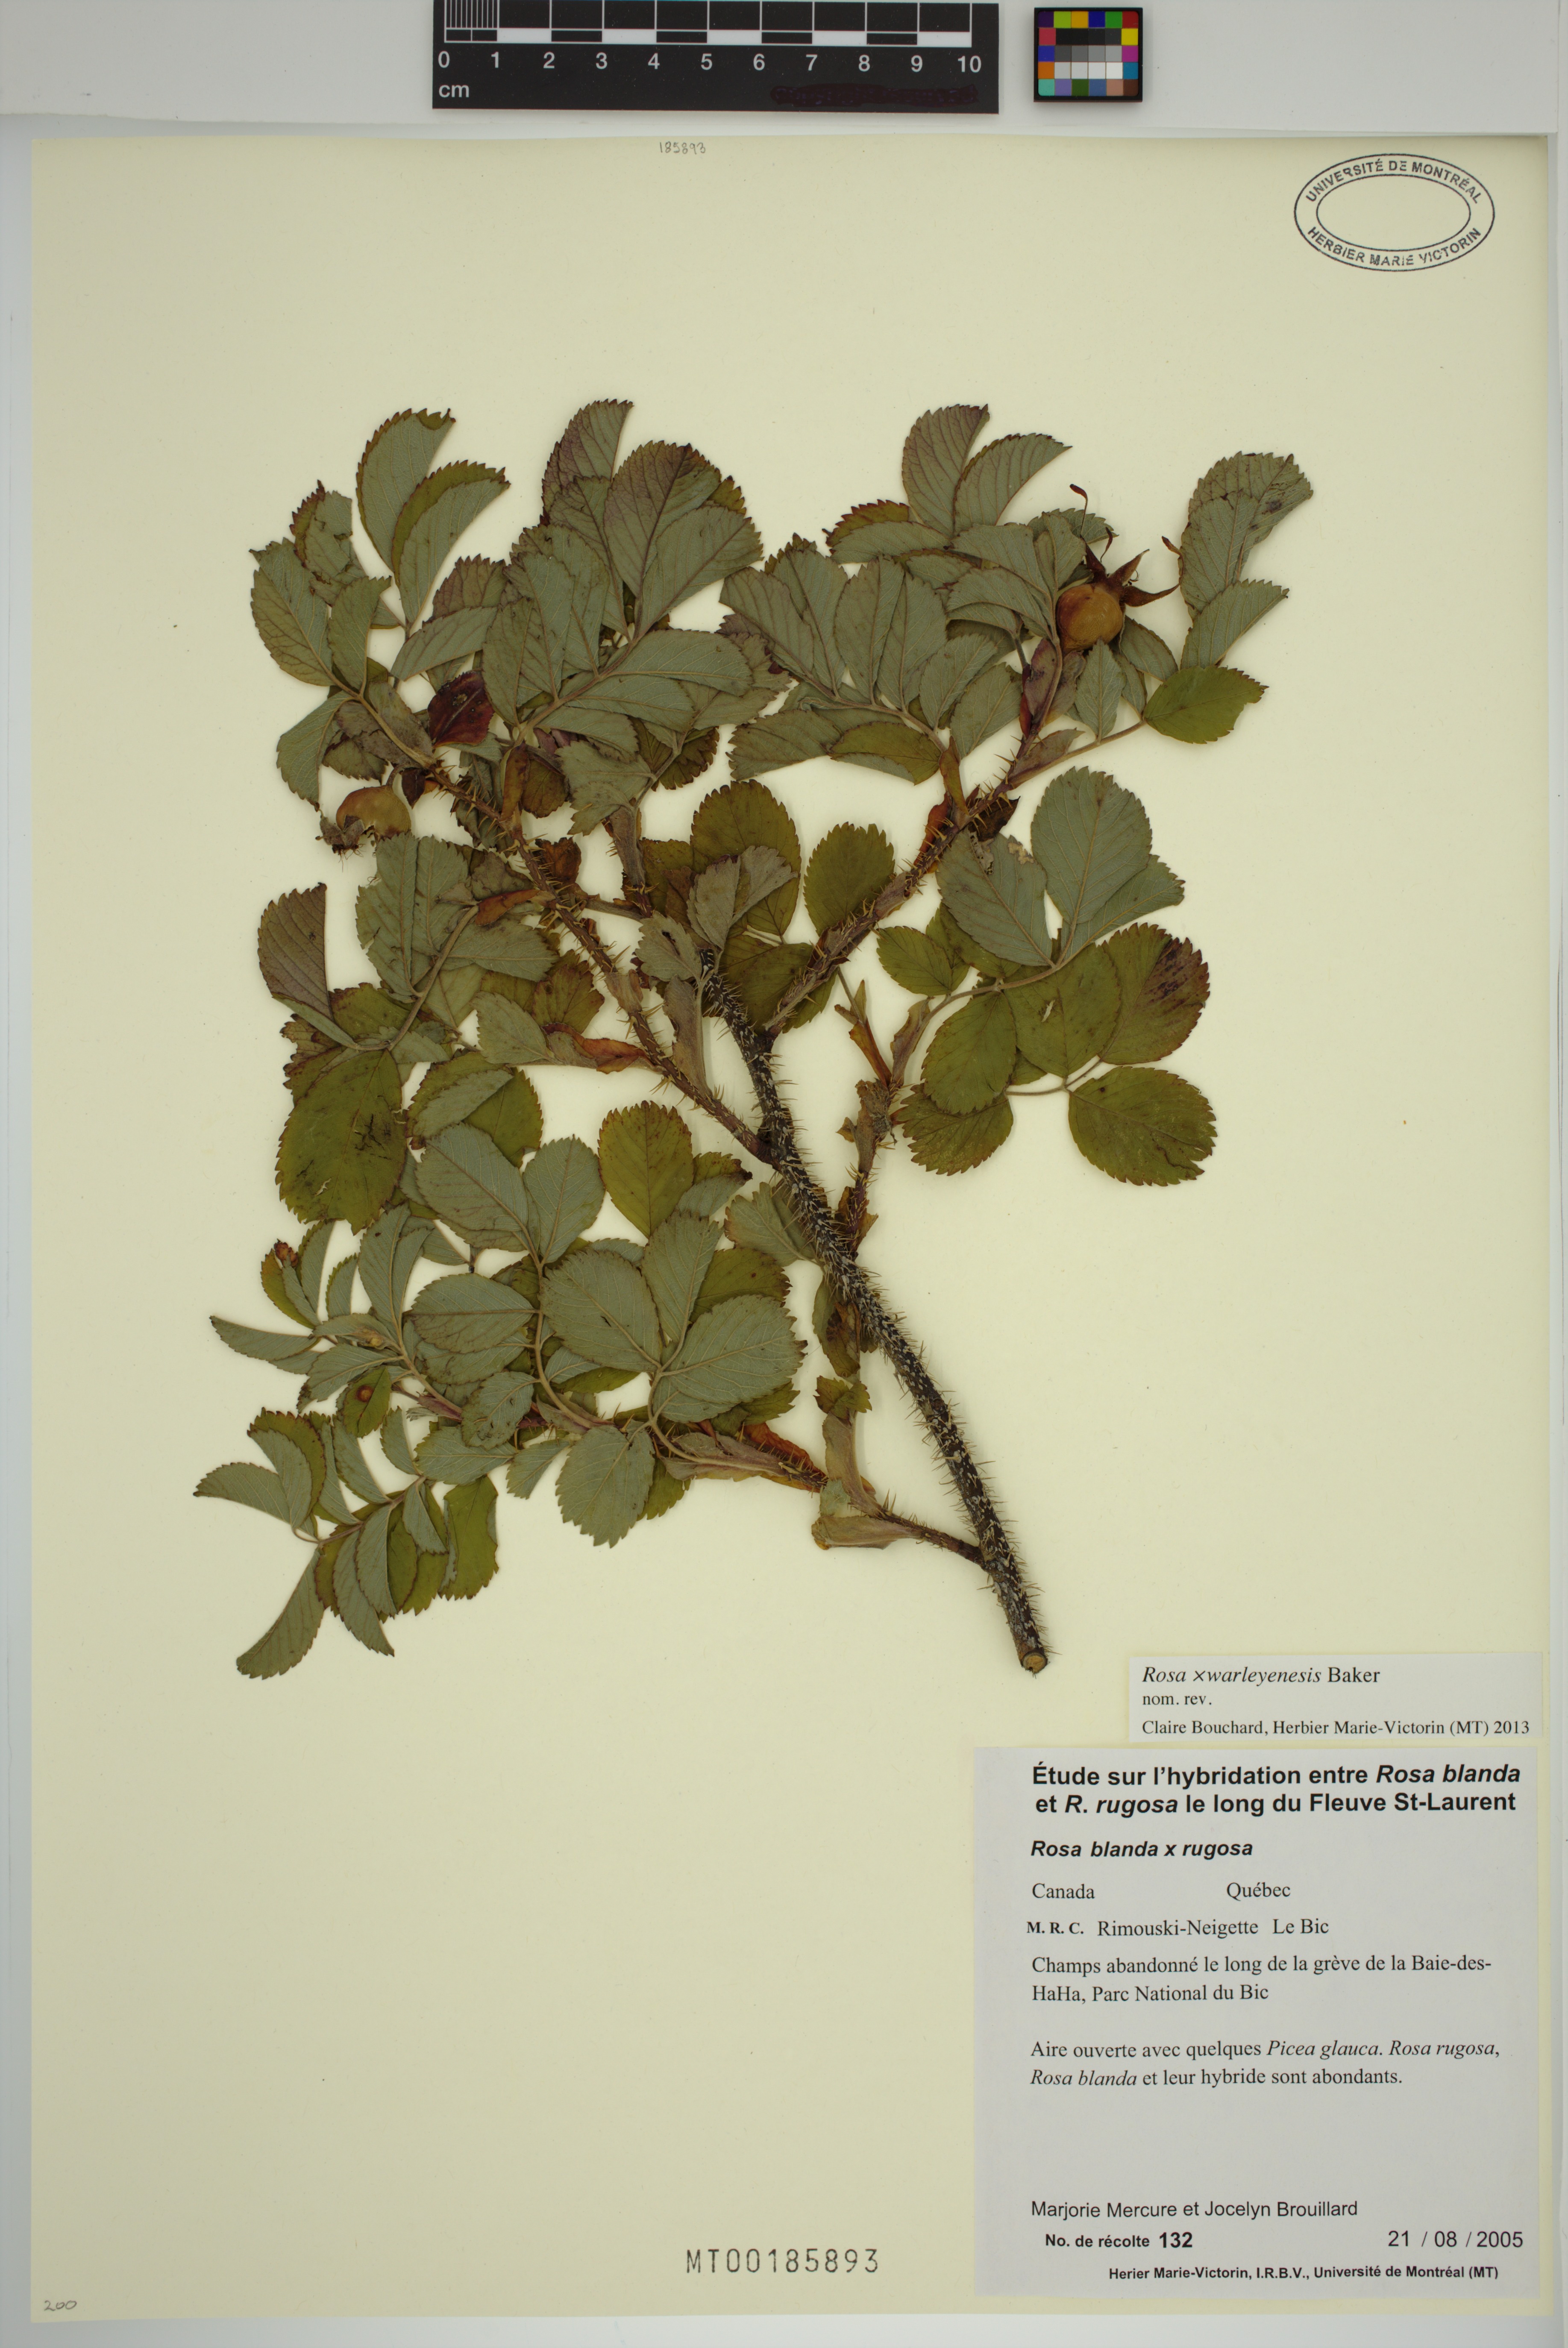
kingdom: Plantae
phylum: Tracheophyta
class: Magnoliopsida
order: Rosales
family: Rosaceae
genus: Rosa
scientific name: Rosa warleyensis
